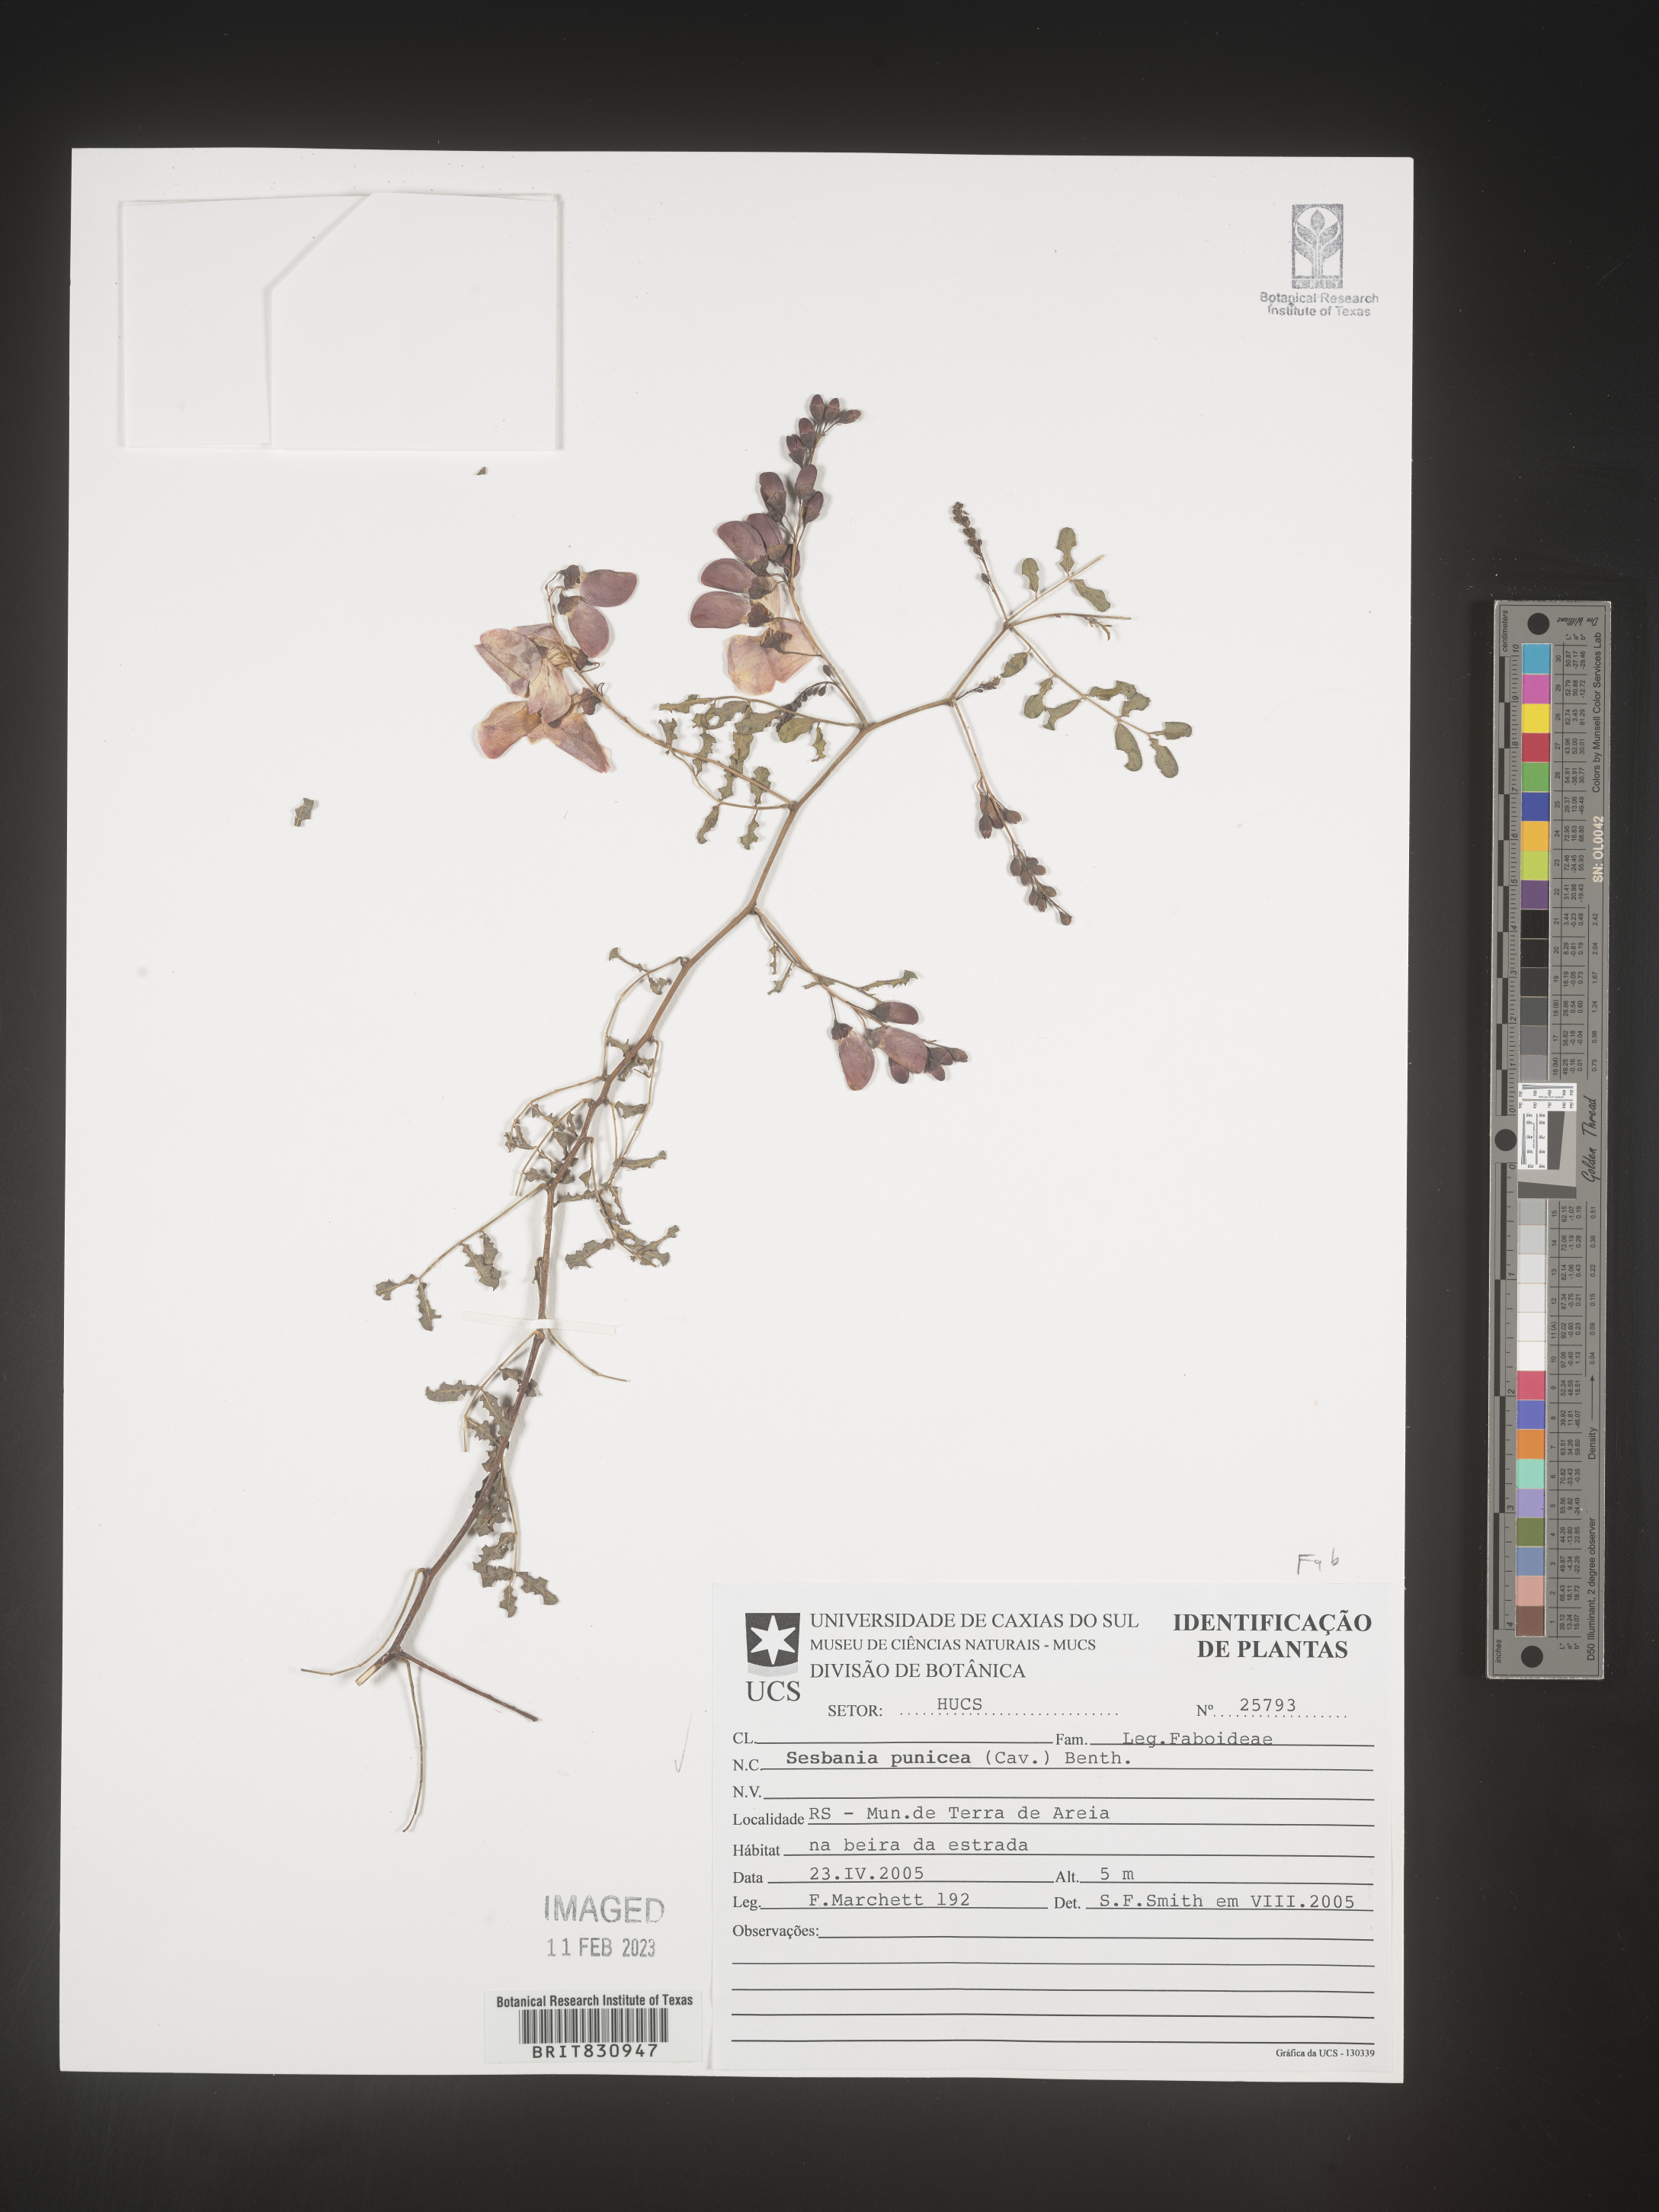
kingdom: Plantae
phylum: Tracheophyta
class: Magnoliopsida
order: Fabales
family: Fabaceae
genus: Sesbania
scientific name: Sesbania
